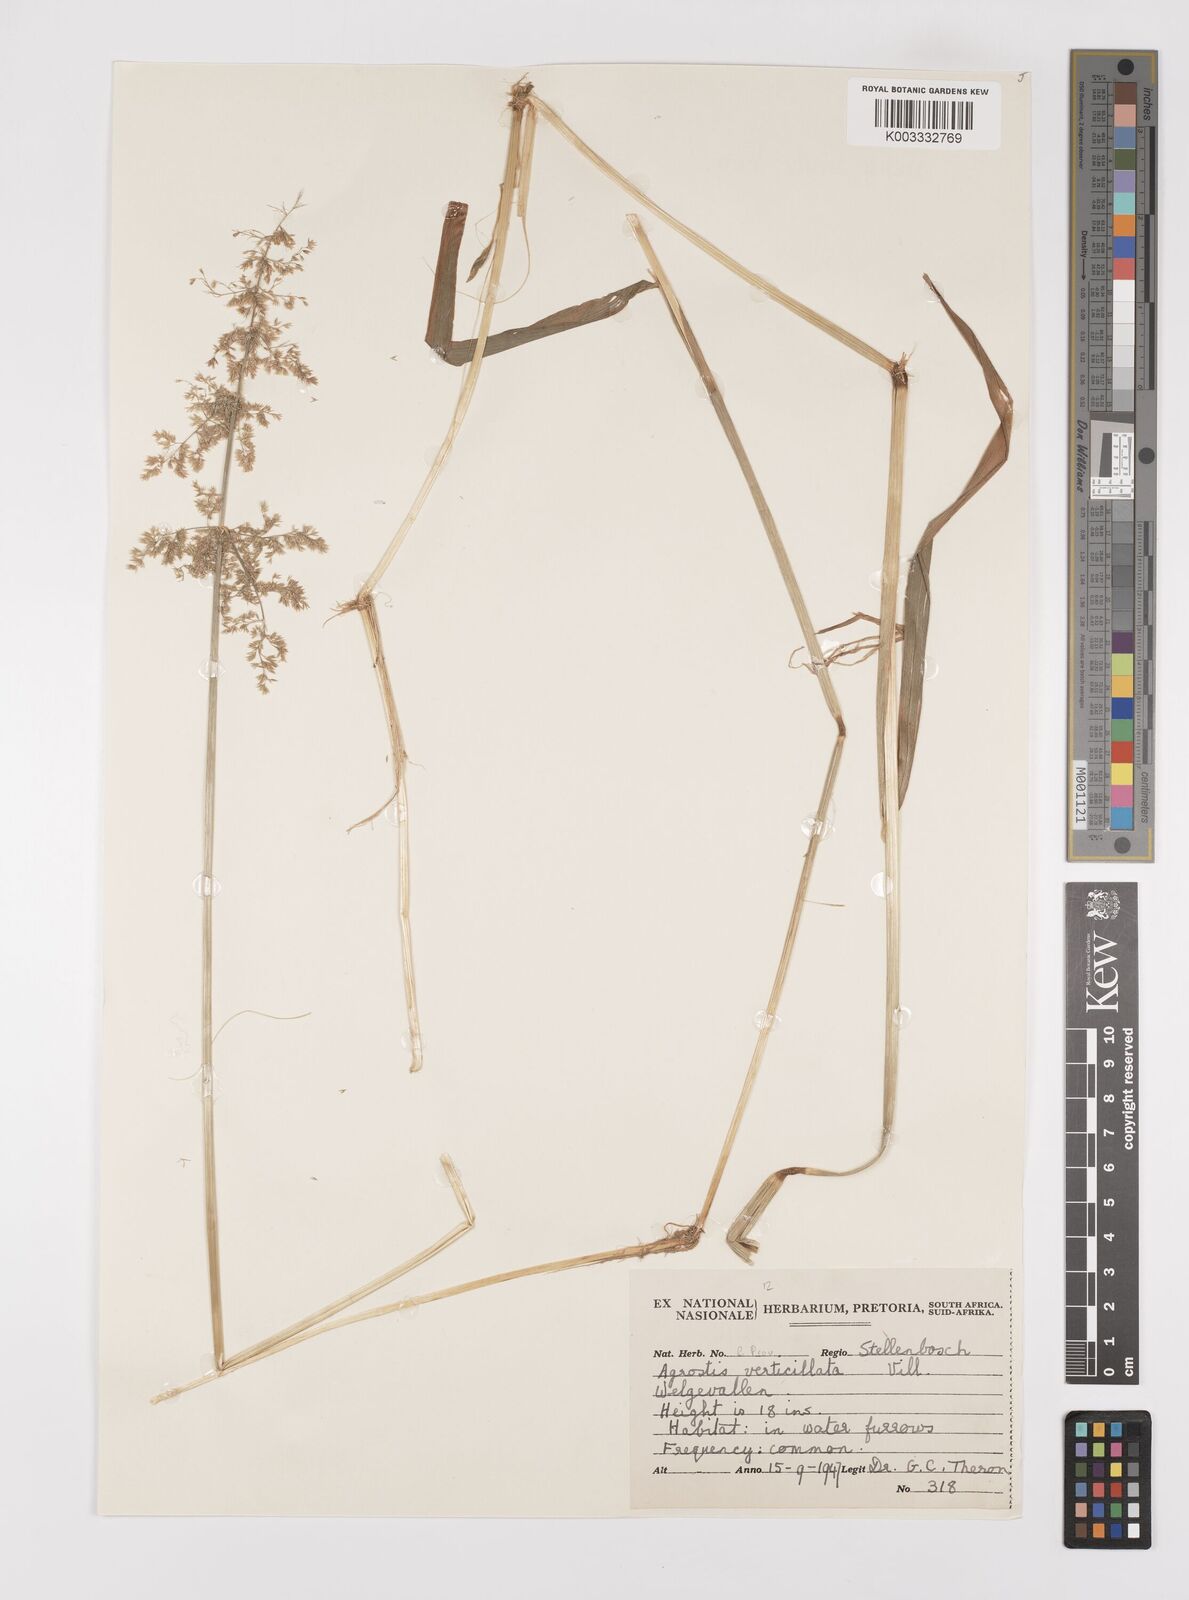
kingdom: Plantae
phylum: Tracheophyta
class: Liliopsida
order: Poales
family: Poaceae
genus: Polypogon
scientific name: Polypogon viridis
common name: Water bent
